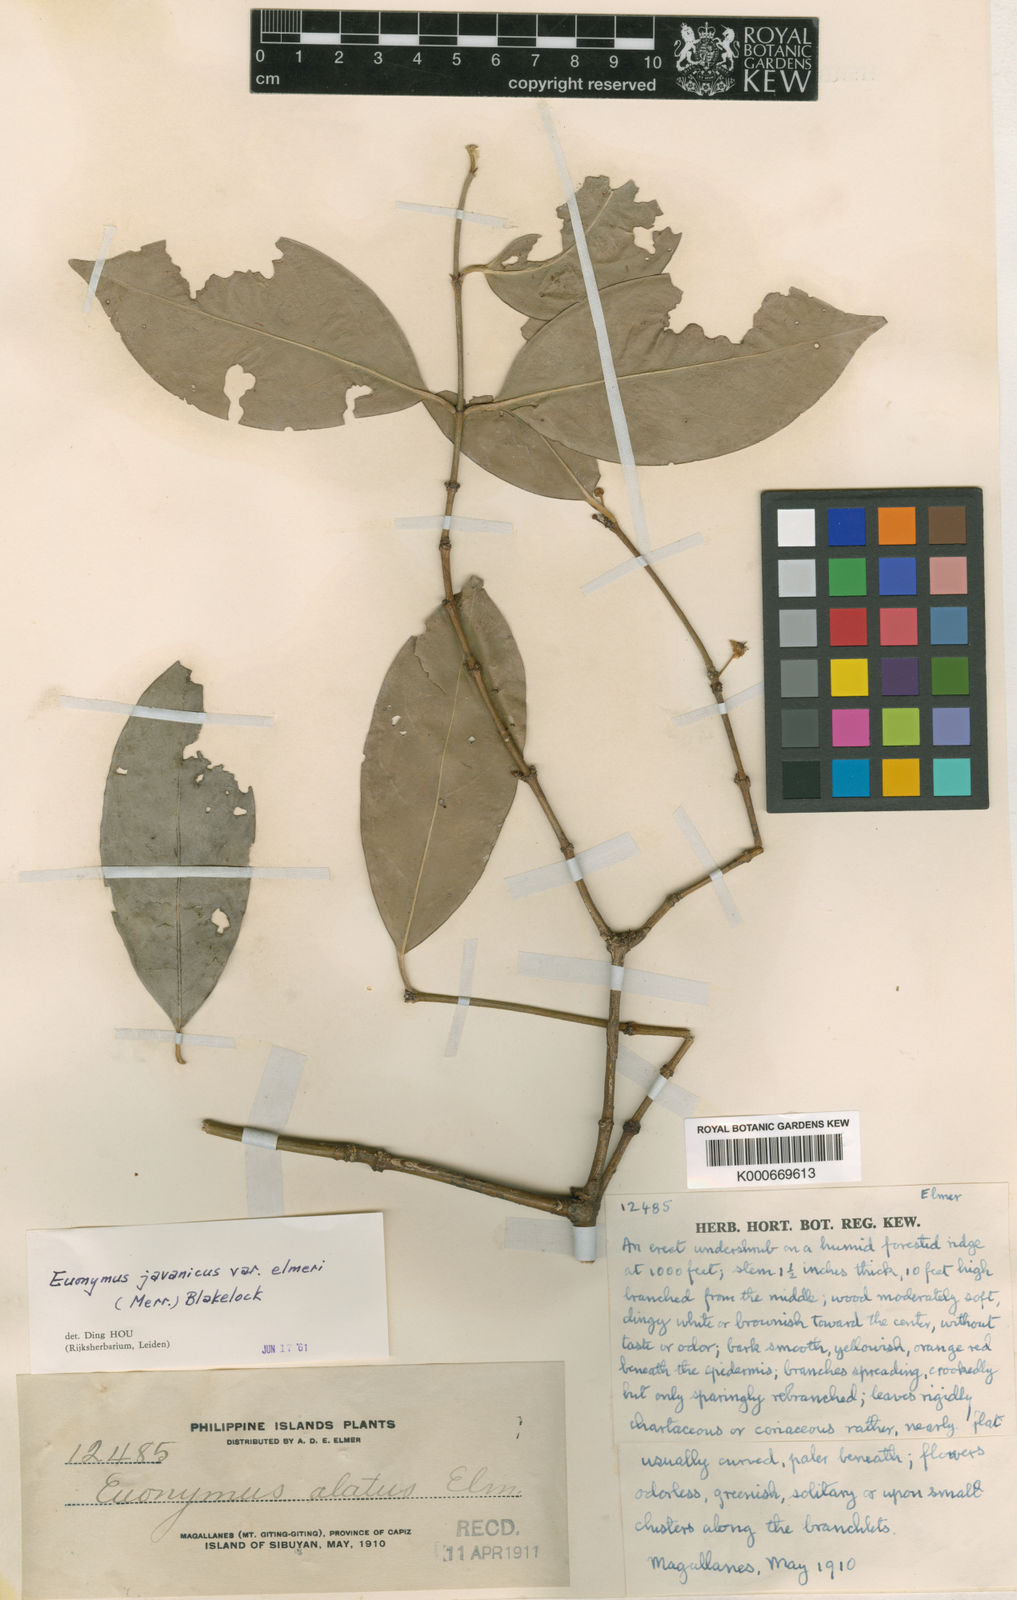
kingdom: Plantae
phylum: Tracheophyta
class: Magnoliopsida
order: Celastrales
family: Celastraceae
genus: Euonymus
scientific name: Euonymus indicus
